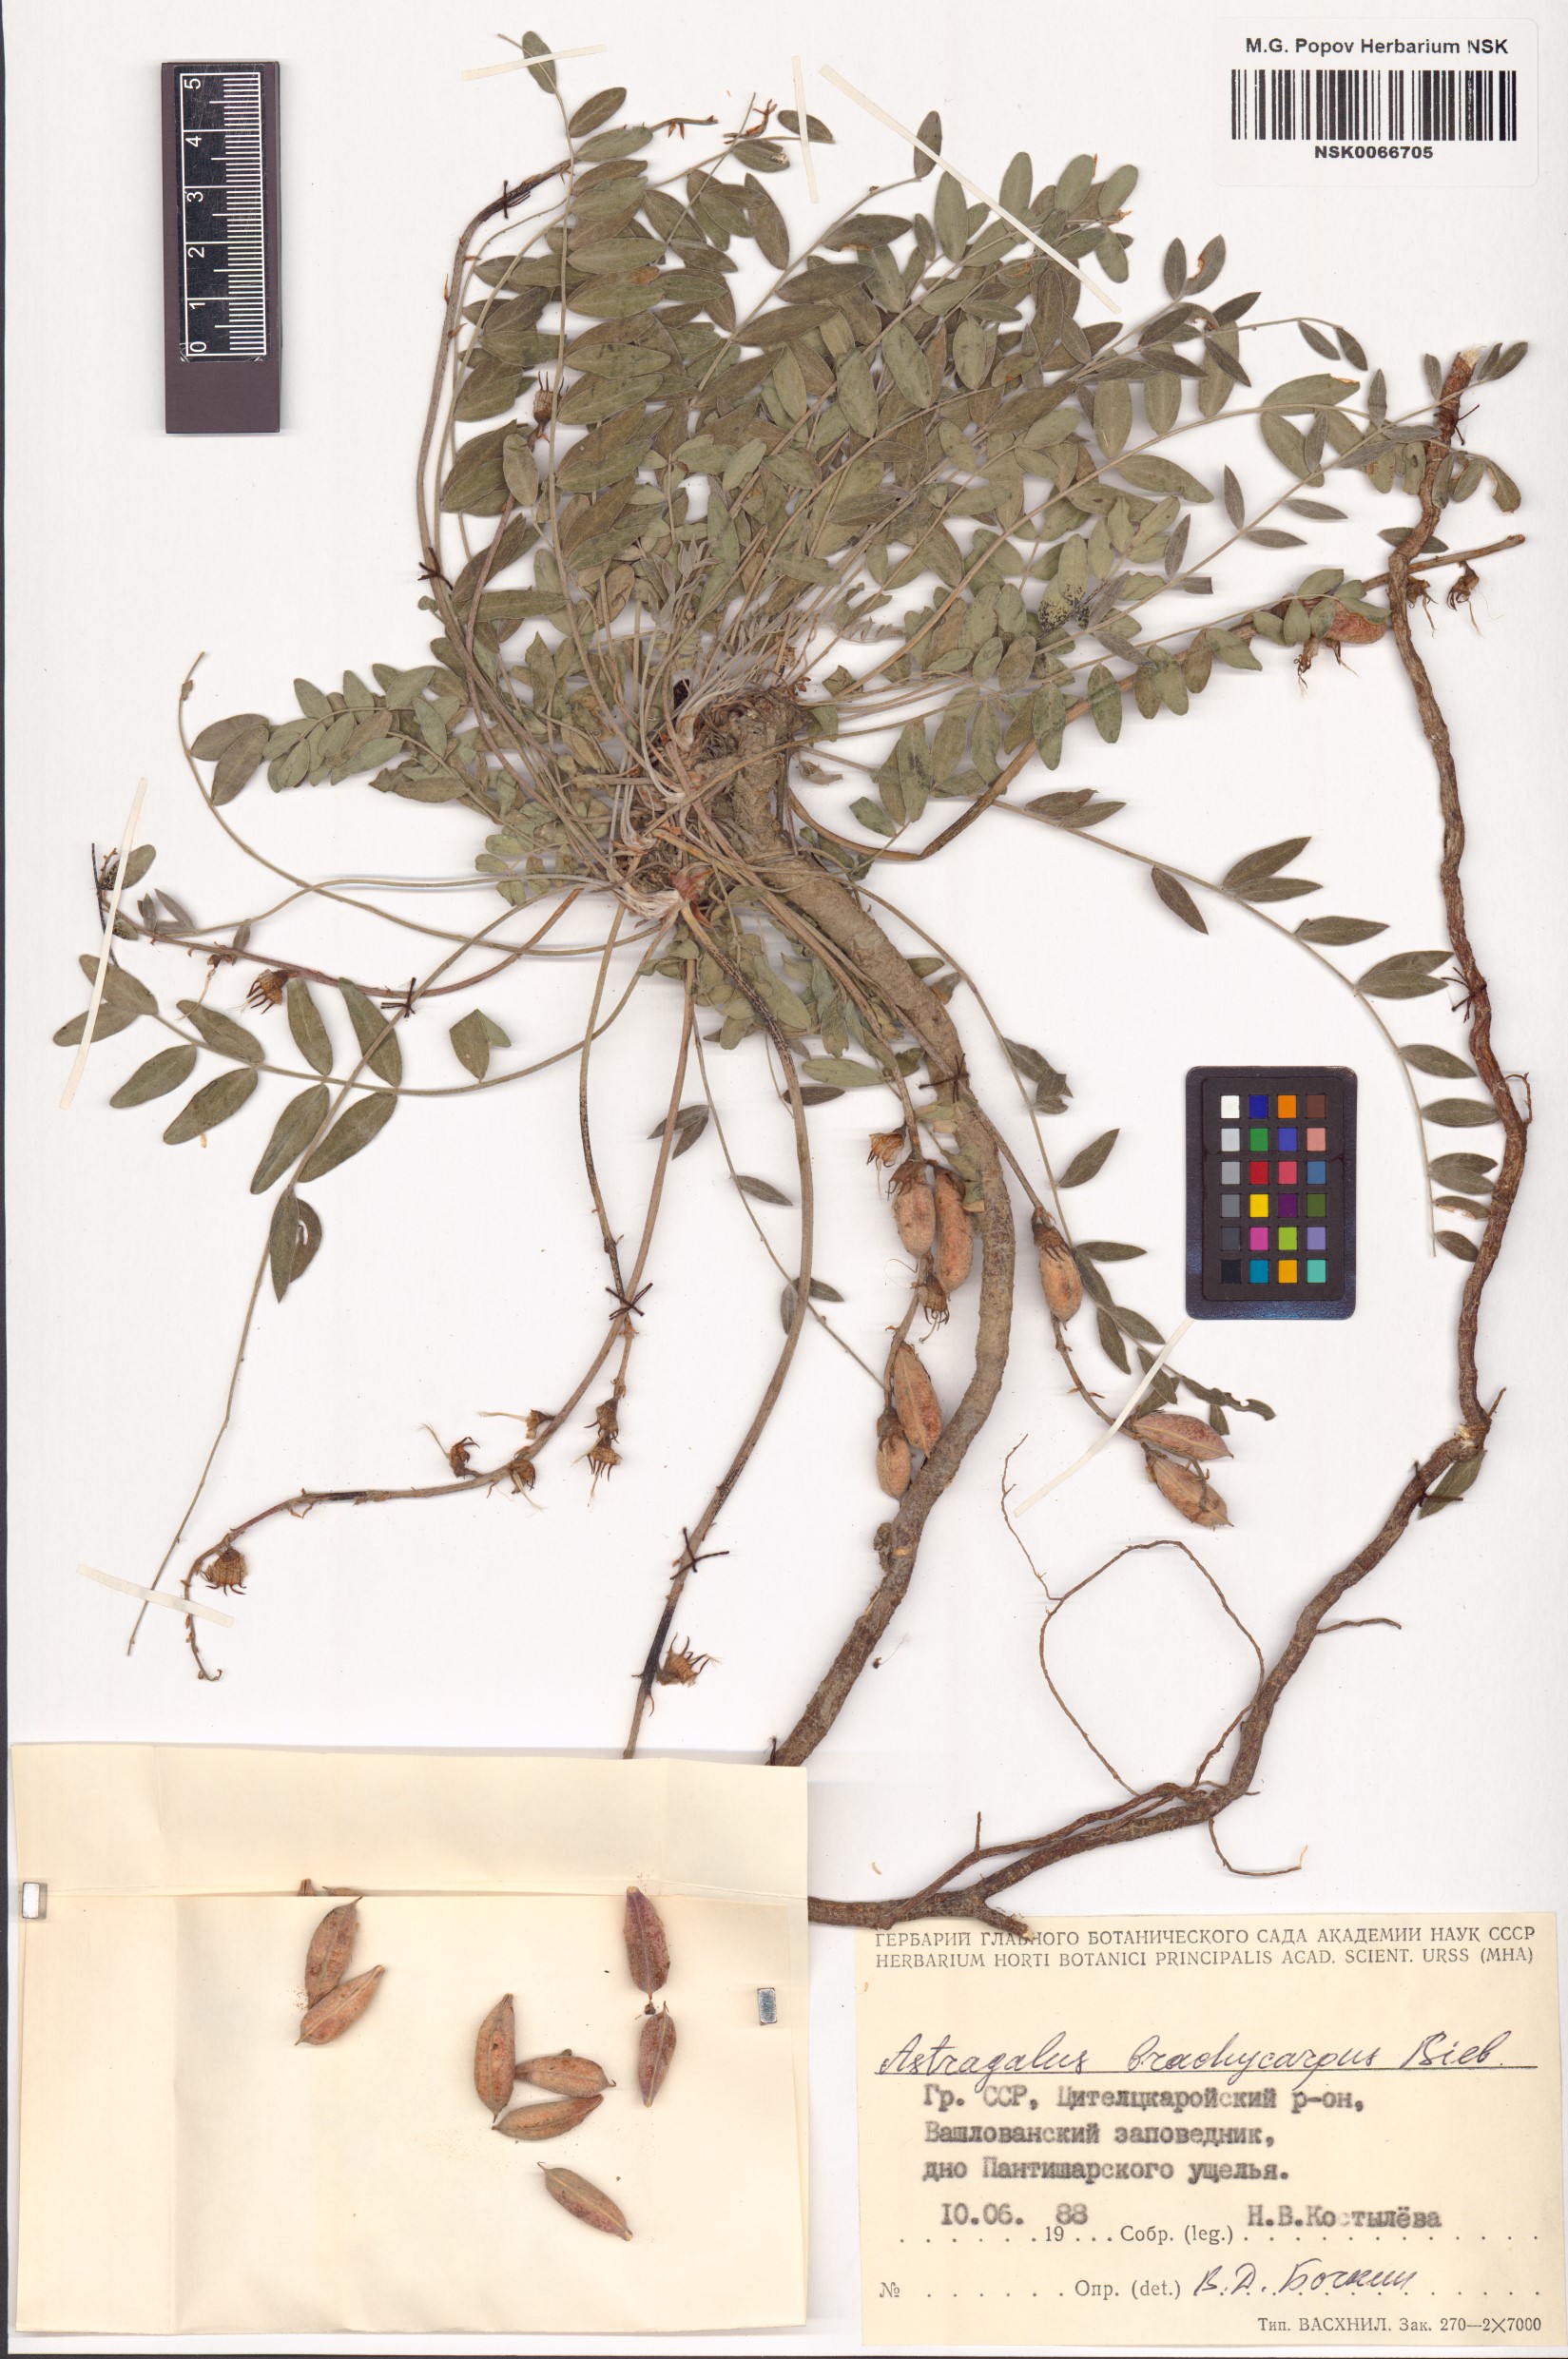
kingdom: Plantae
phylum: Tracheophyta
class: Magnoliopsida
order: Fabales
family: Fabaceae
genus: Astragalus
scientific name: Astragalus brachycarpus
